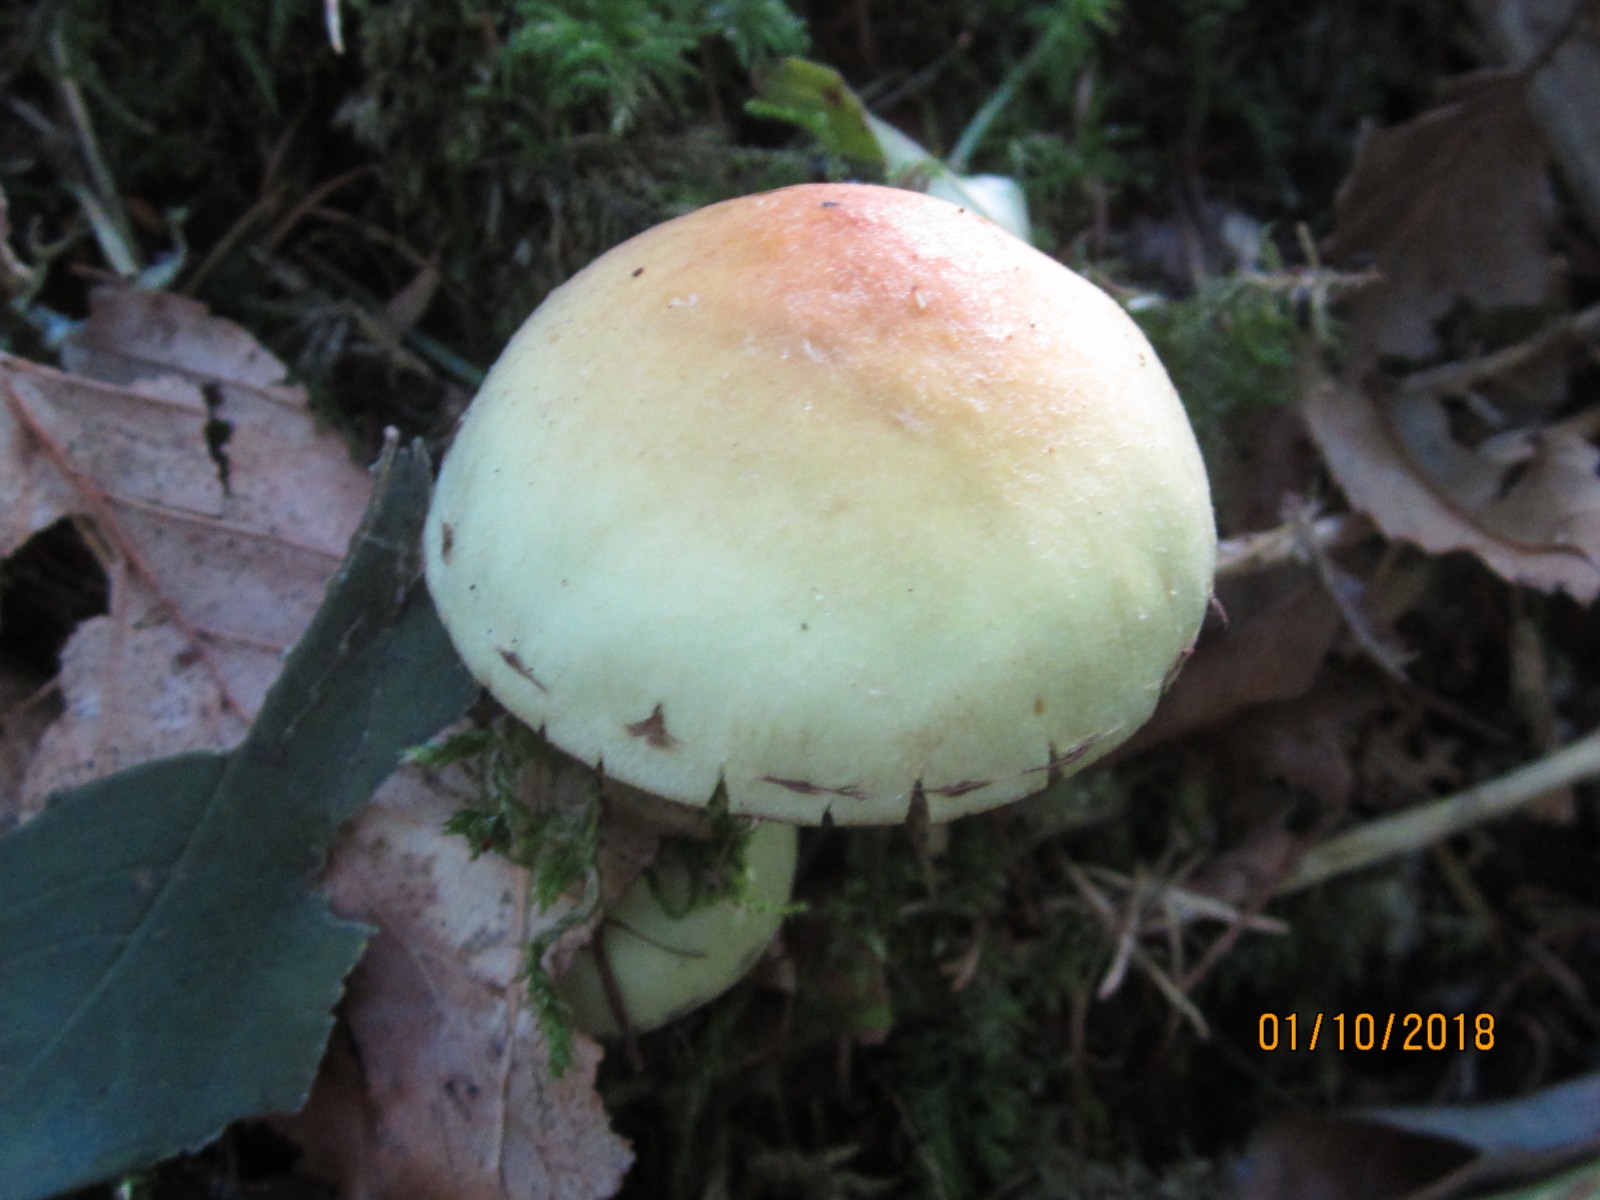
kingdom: Fungi
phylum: Basidiomycota
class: Agaricomycetes
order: Agaricales
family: Strophariaceae
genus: Hypholoma
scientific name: Hypholoma fasciculare
